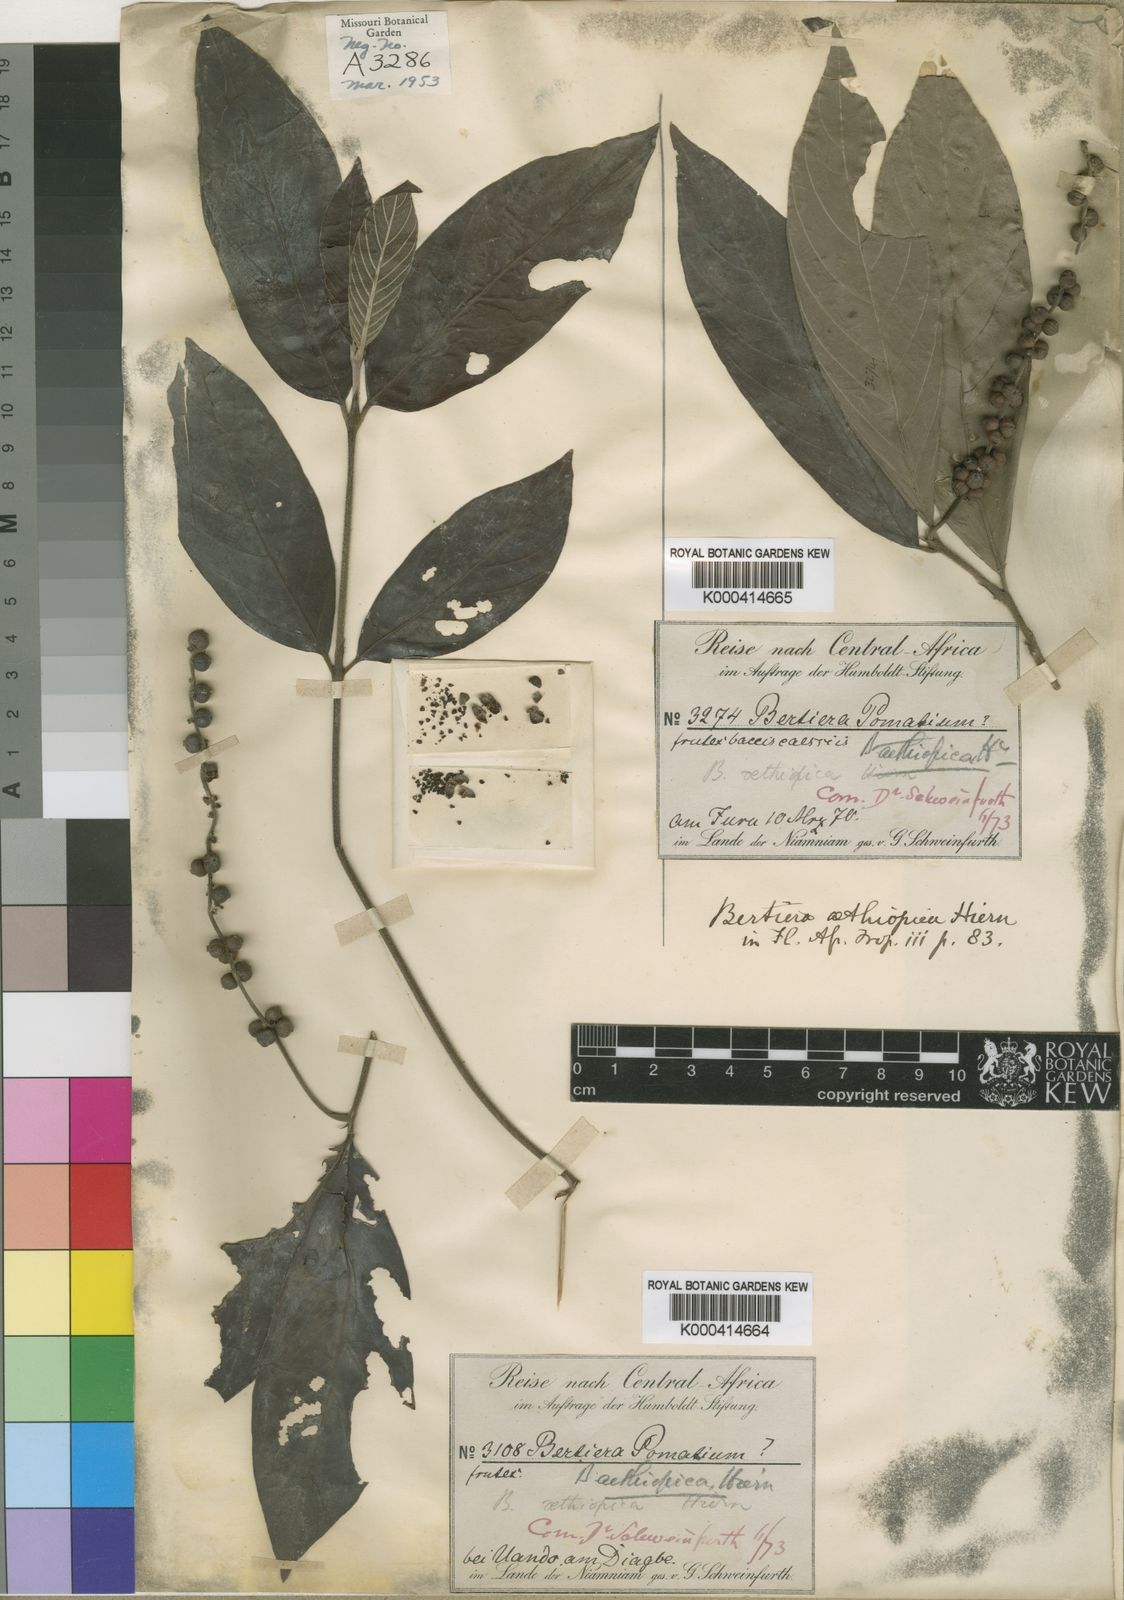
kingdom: Plantae
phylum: Tracheophyta
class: Magnoliopsida
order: Gentianales
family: Rubiaceae
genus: Bertiera
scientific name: Bertiera aethiopica
